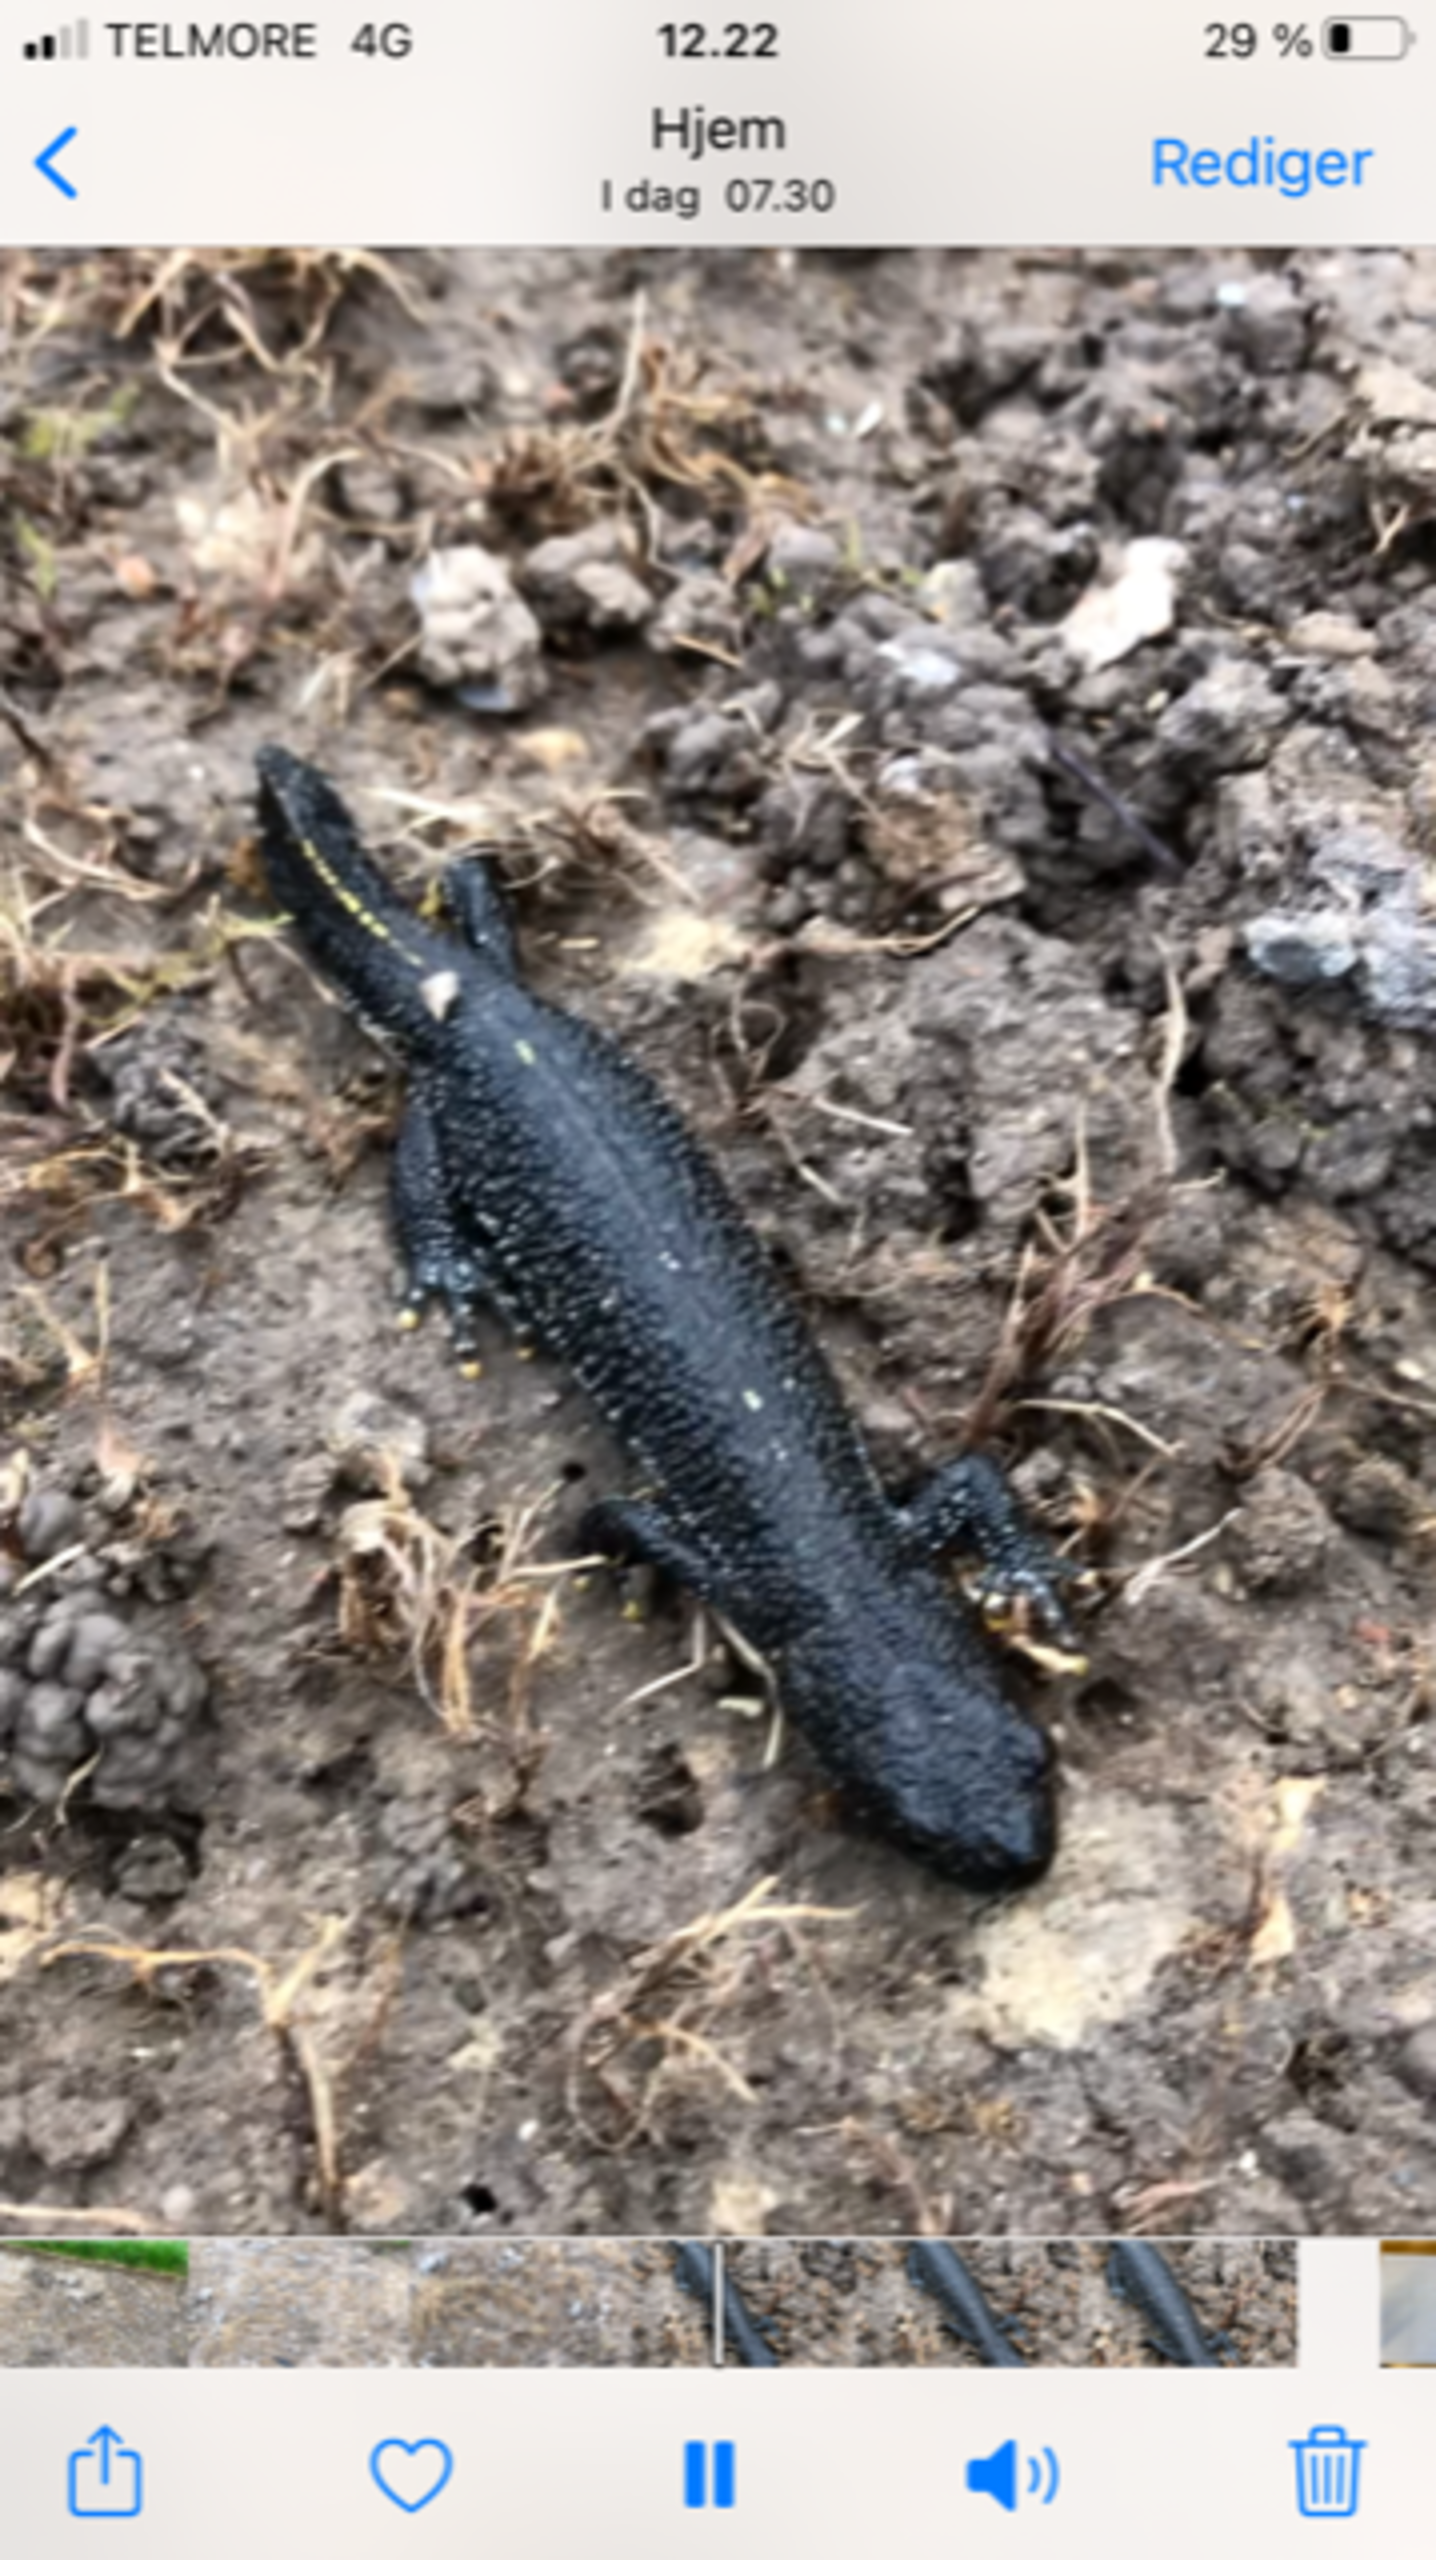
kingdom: Animalia
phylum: Chordata
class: Amphibia
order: Caudata
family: Salamandridae
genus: Triturus
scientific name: Triturus cristatus
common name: Stor vandsalamander
